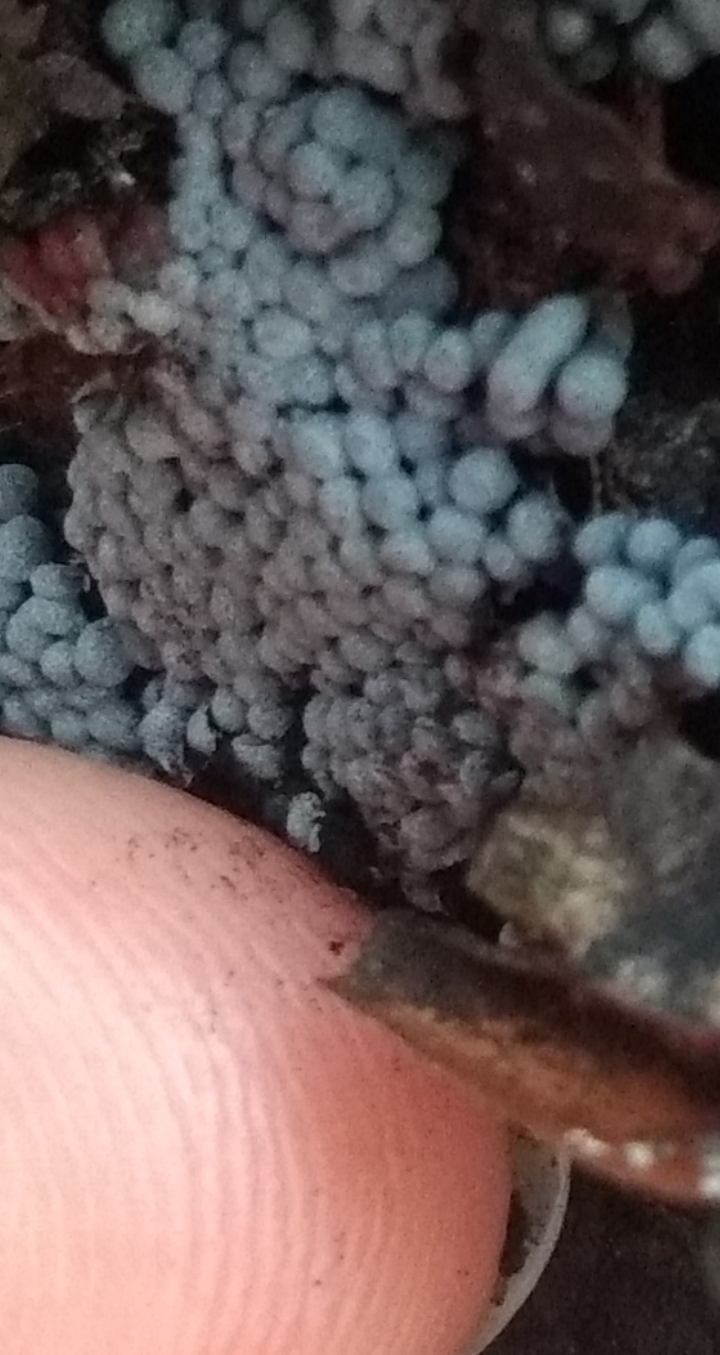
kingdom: Protozoa
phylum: Mycetozoa
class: Myxomycetes
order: Physarales
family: Physaraceae
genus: Badhamia
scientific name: Badhamia utricularis
